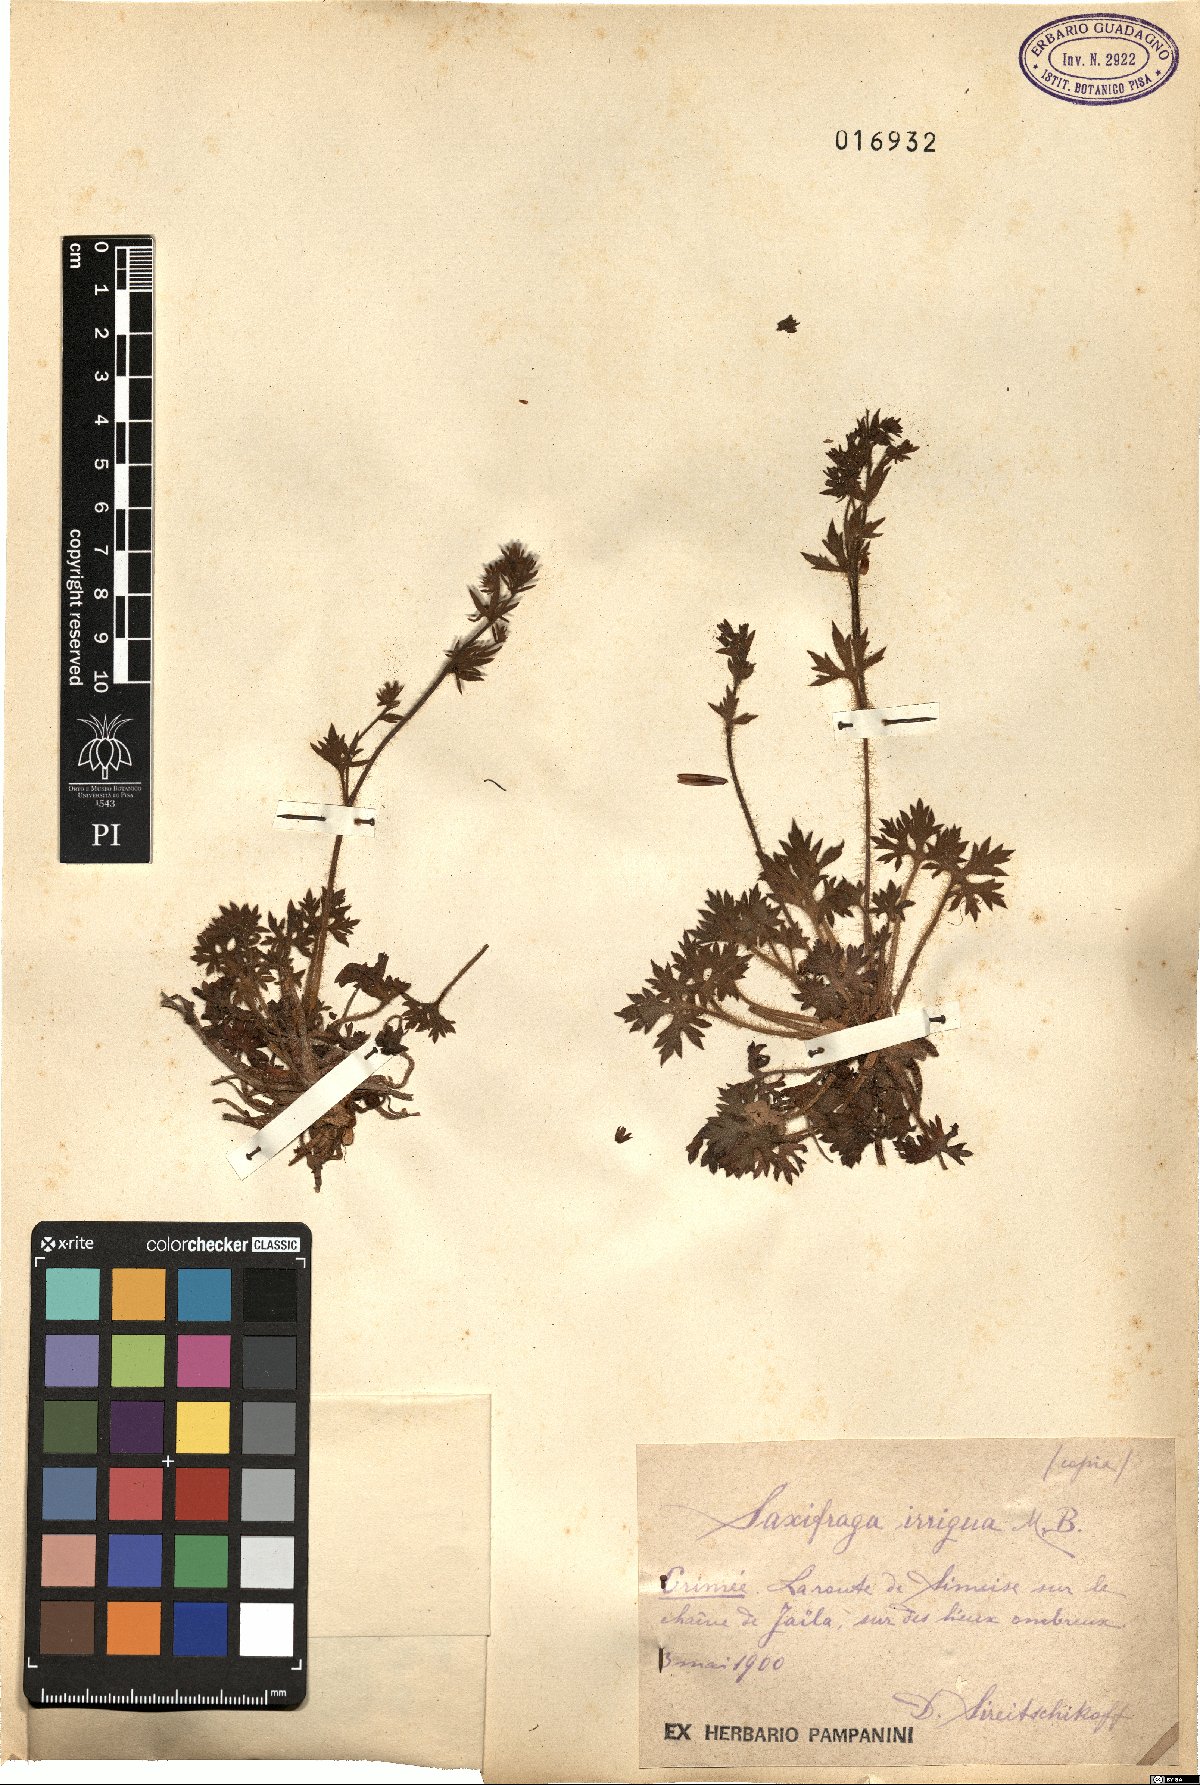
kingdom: Plantae
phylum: Tracheophyta
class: Magnoliopsida
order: Saxifragales
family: Saxifragaceae
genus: Saxifraga
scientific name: Saxifraga irrigua
